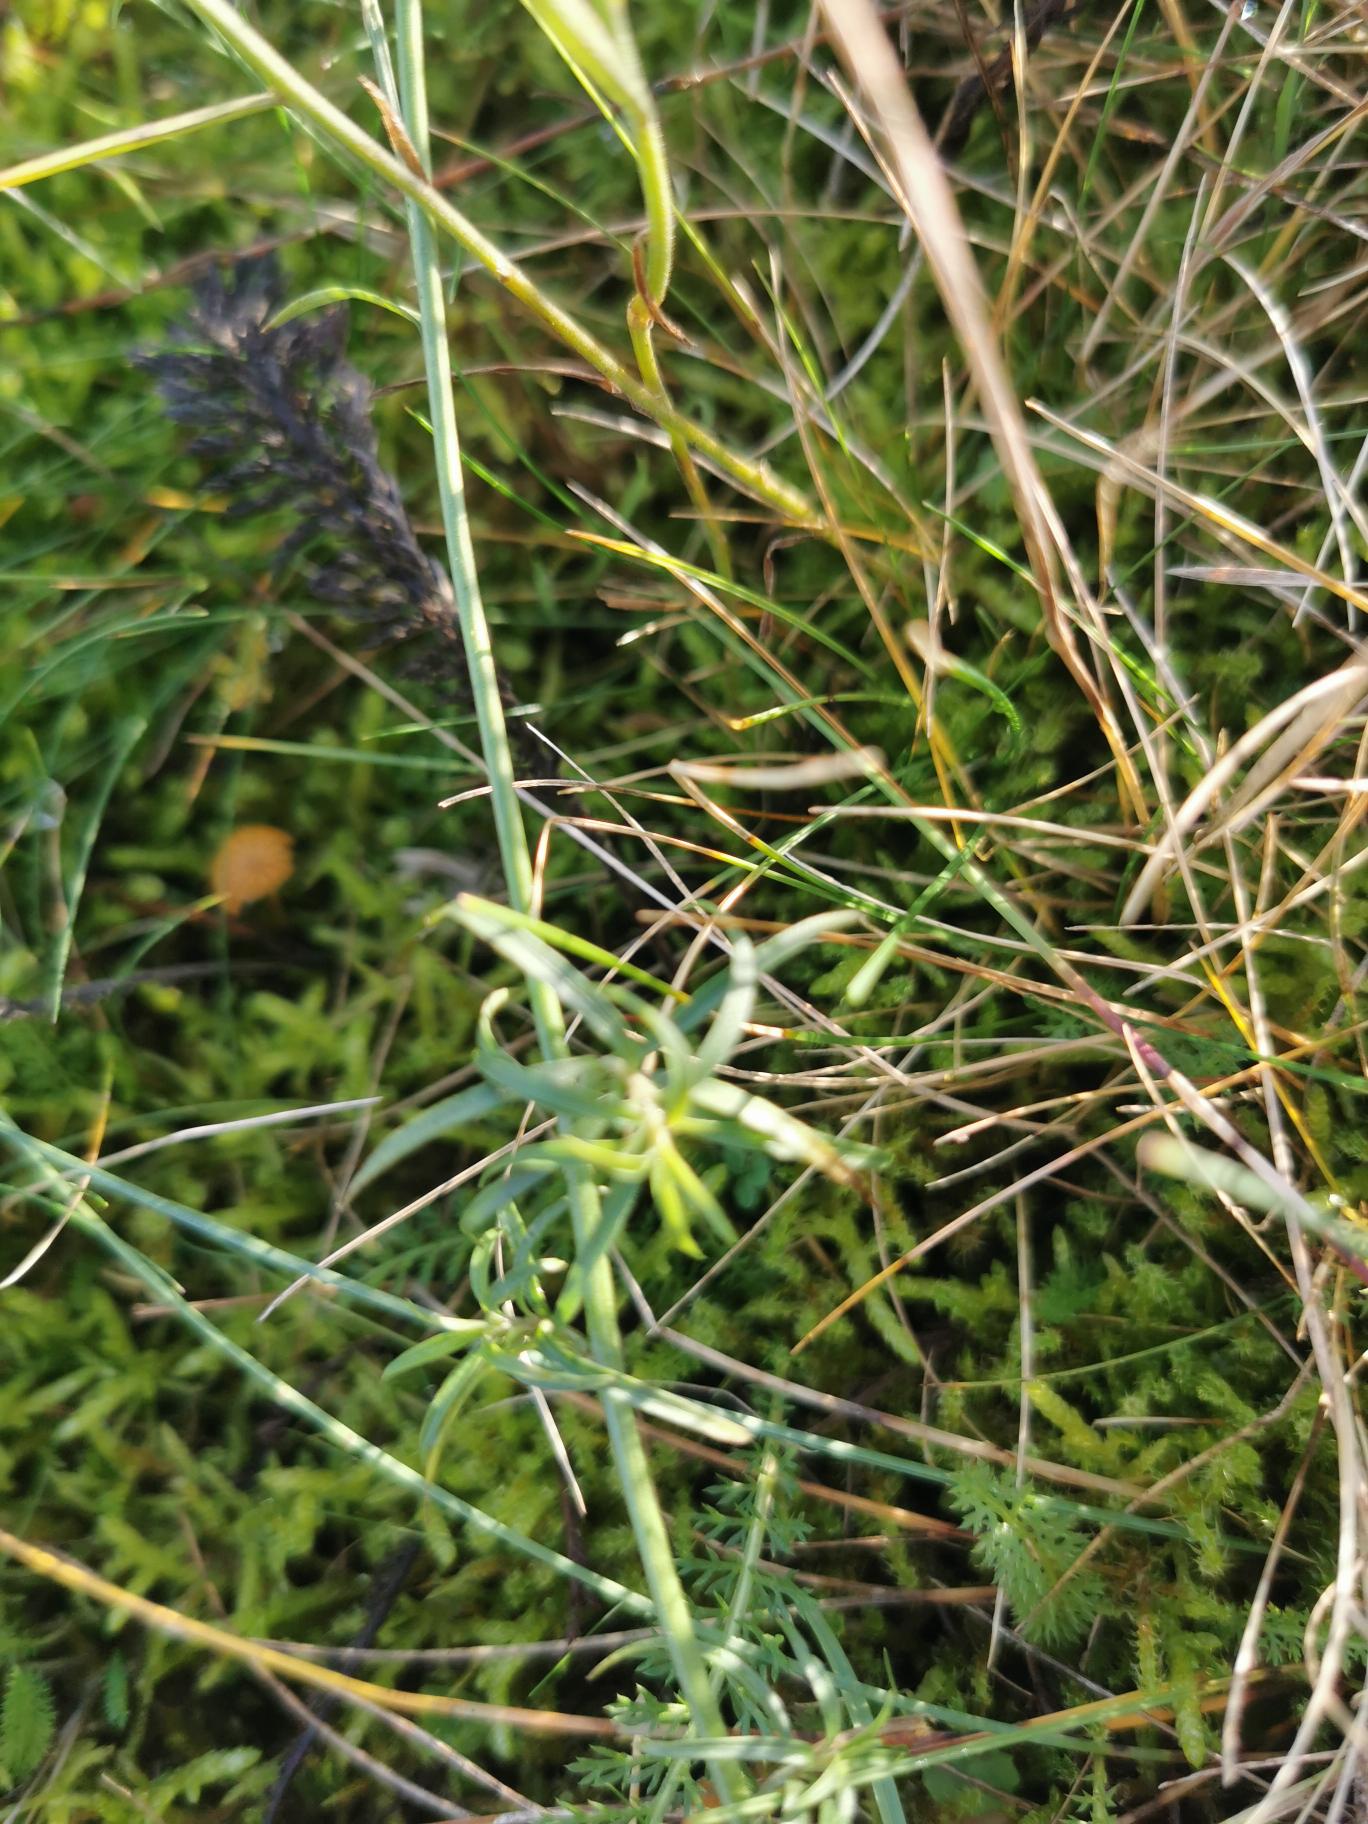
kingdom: Plantae
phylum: Tracheophyta
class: Magnoliopsida
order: Asterales
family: Campanulaceae
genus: Campanula
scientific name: Campanula rotundifolia
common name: Liden klokke
